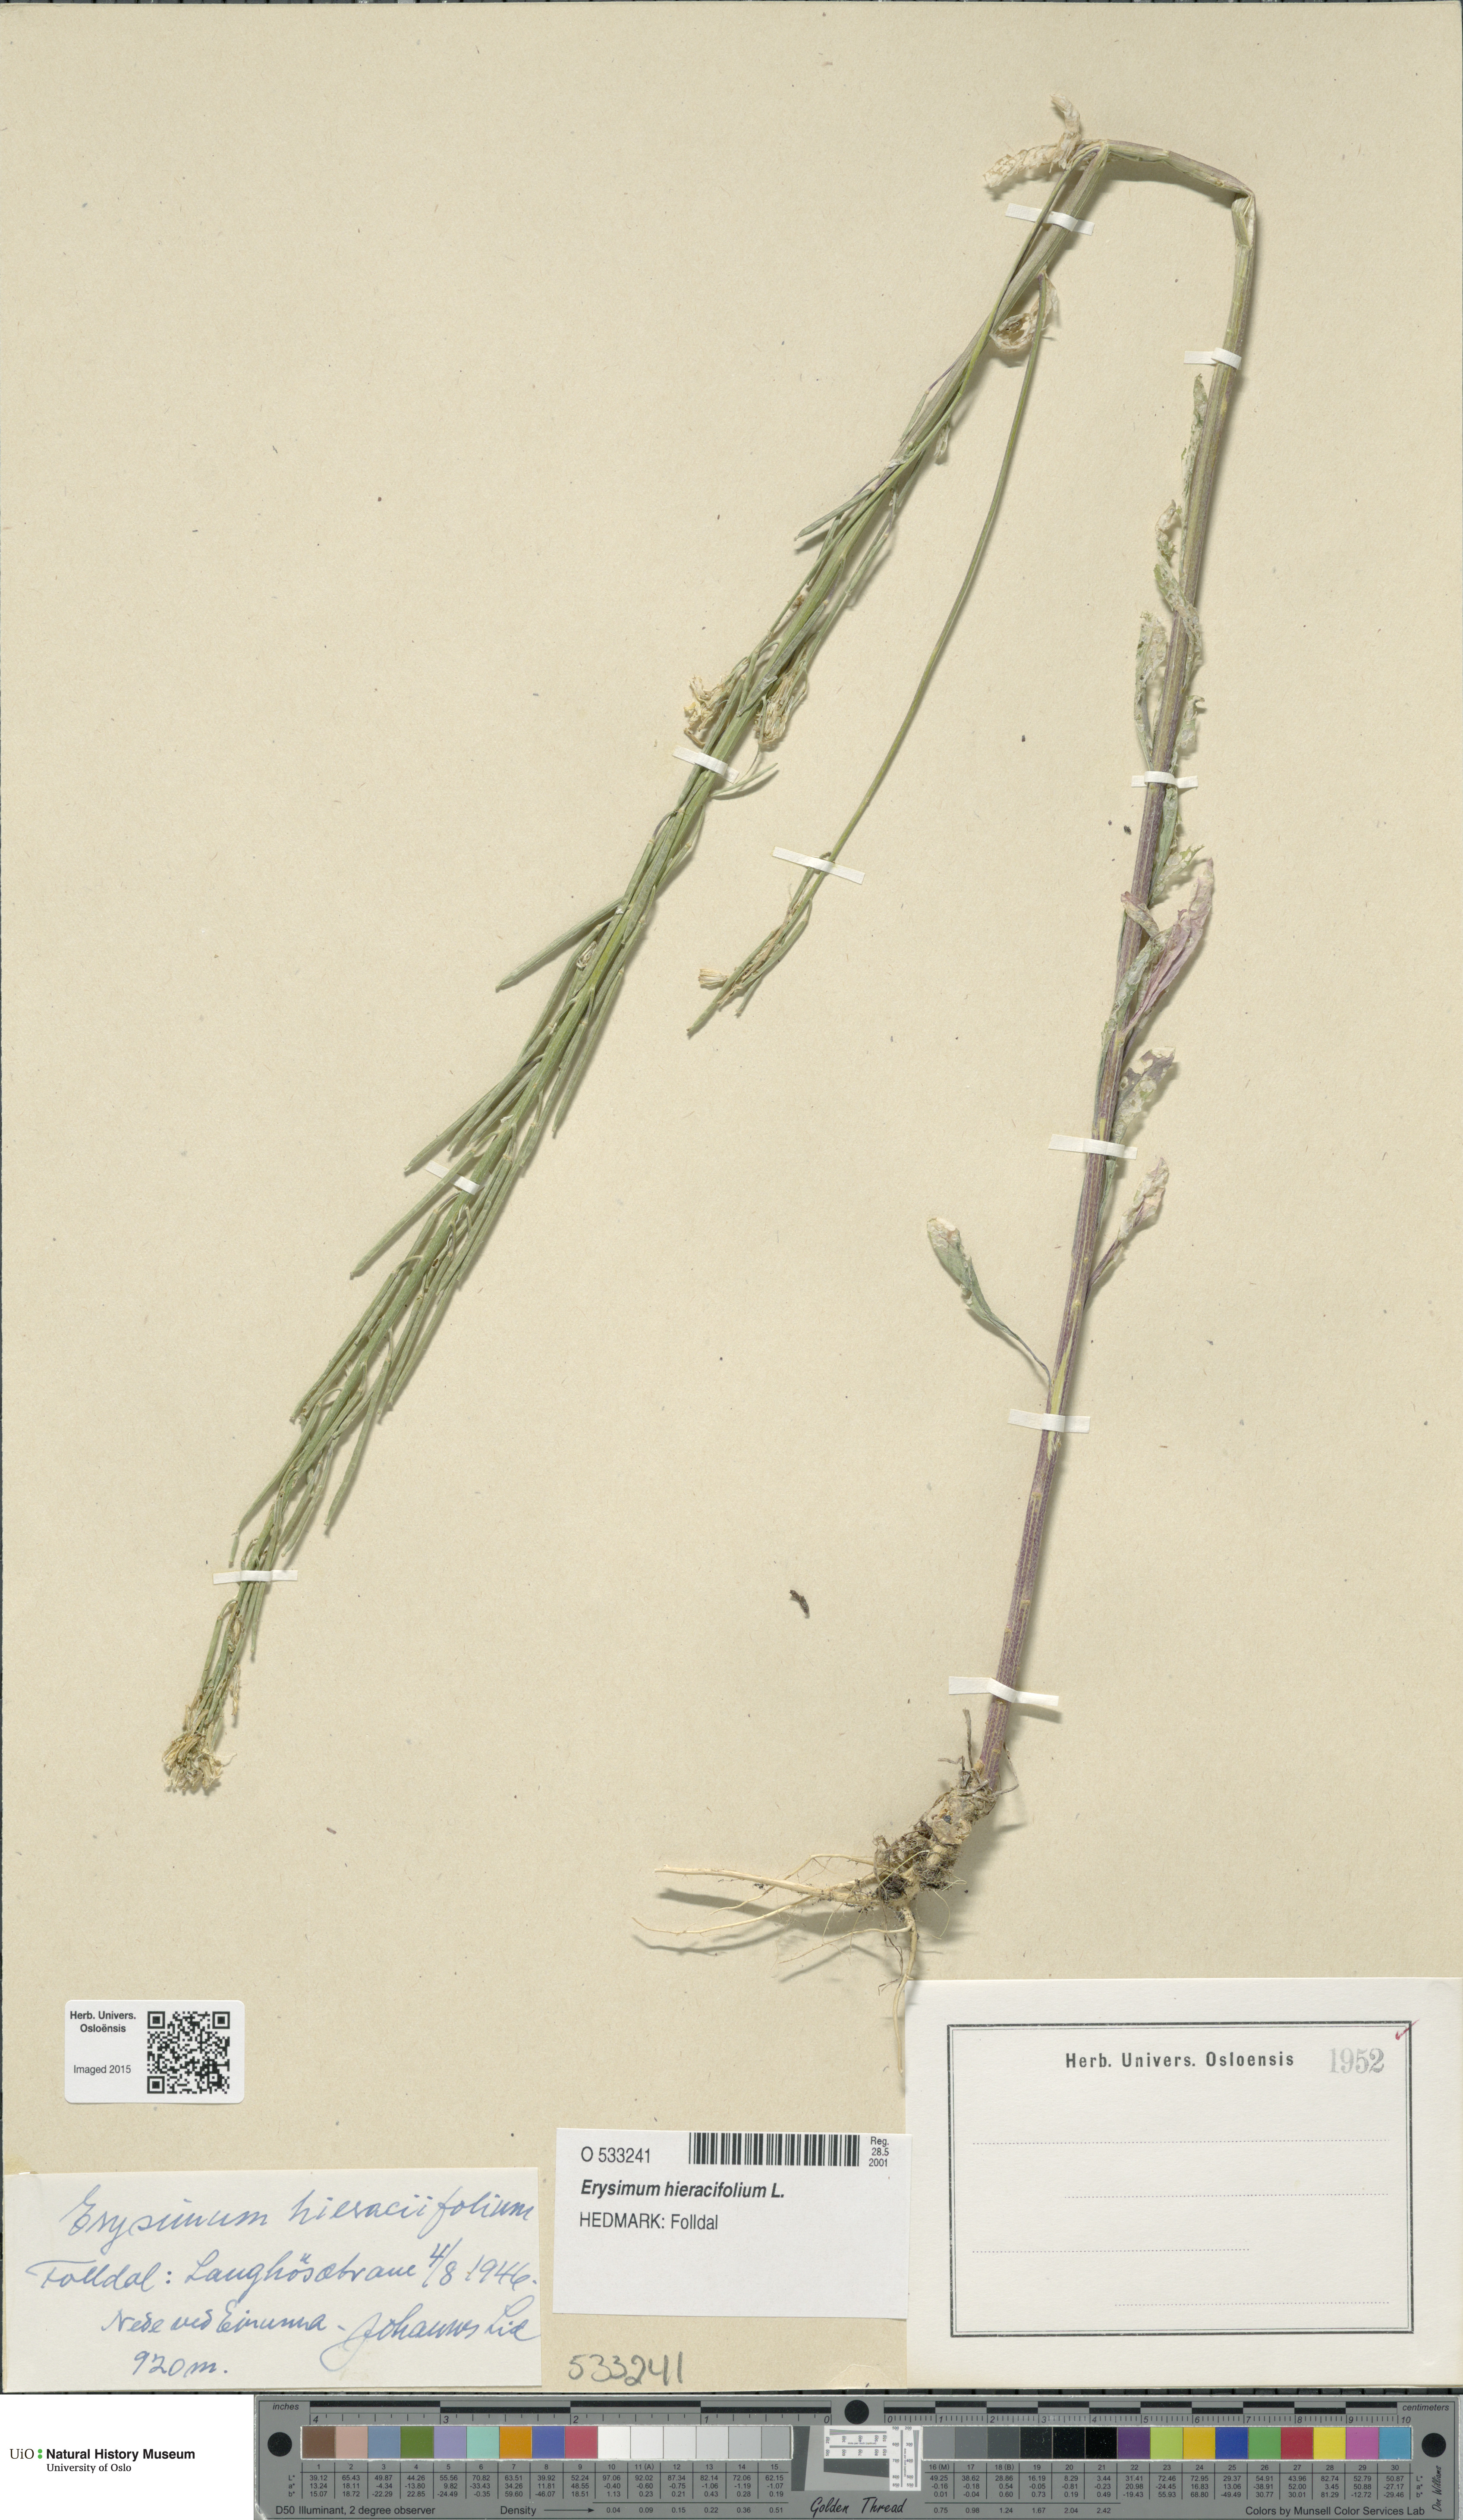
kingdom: Plantae
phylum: Tracheophyta
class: Magnoliopsida
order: Brassicales
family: Brassicaceae
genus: Erysimum
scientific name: Erysimum hieraciifolium
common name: European wallflower
